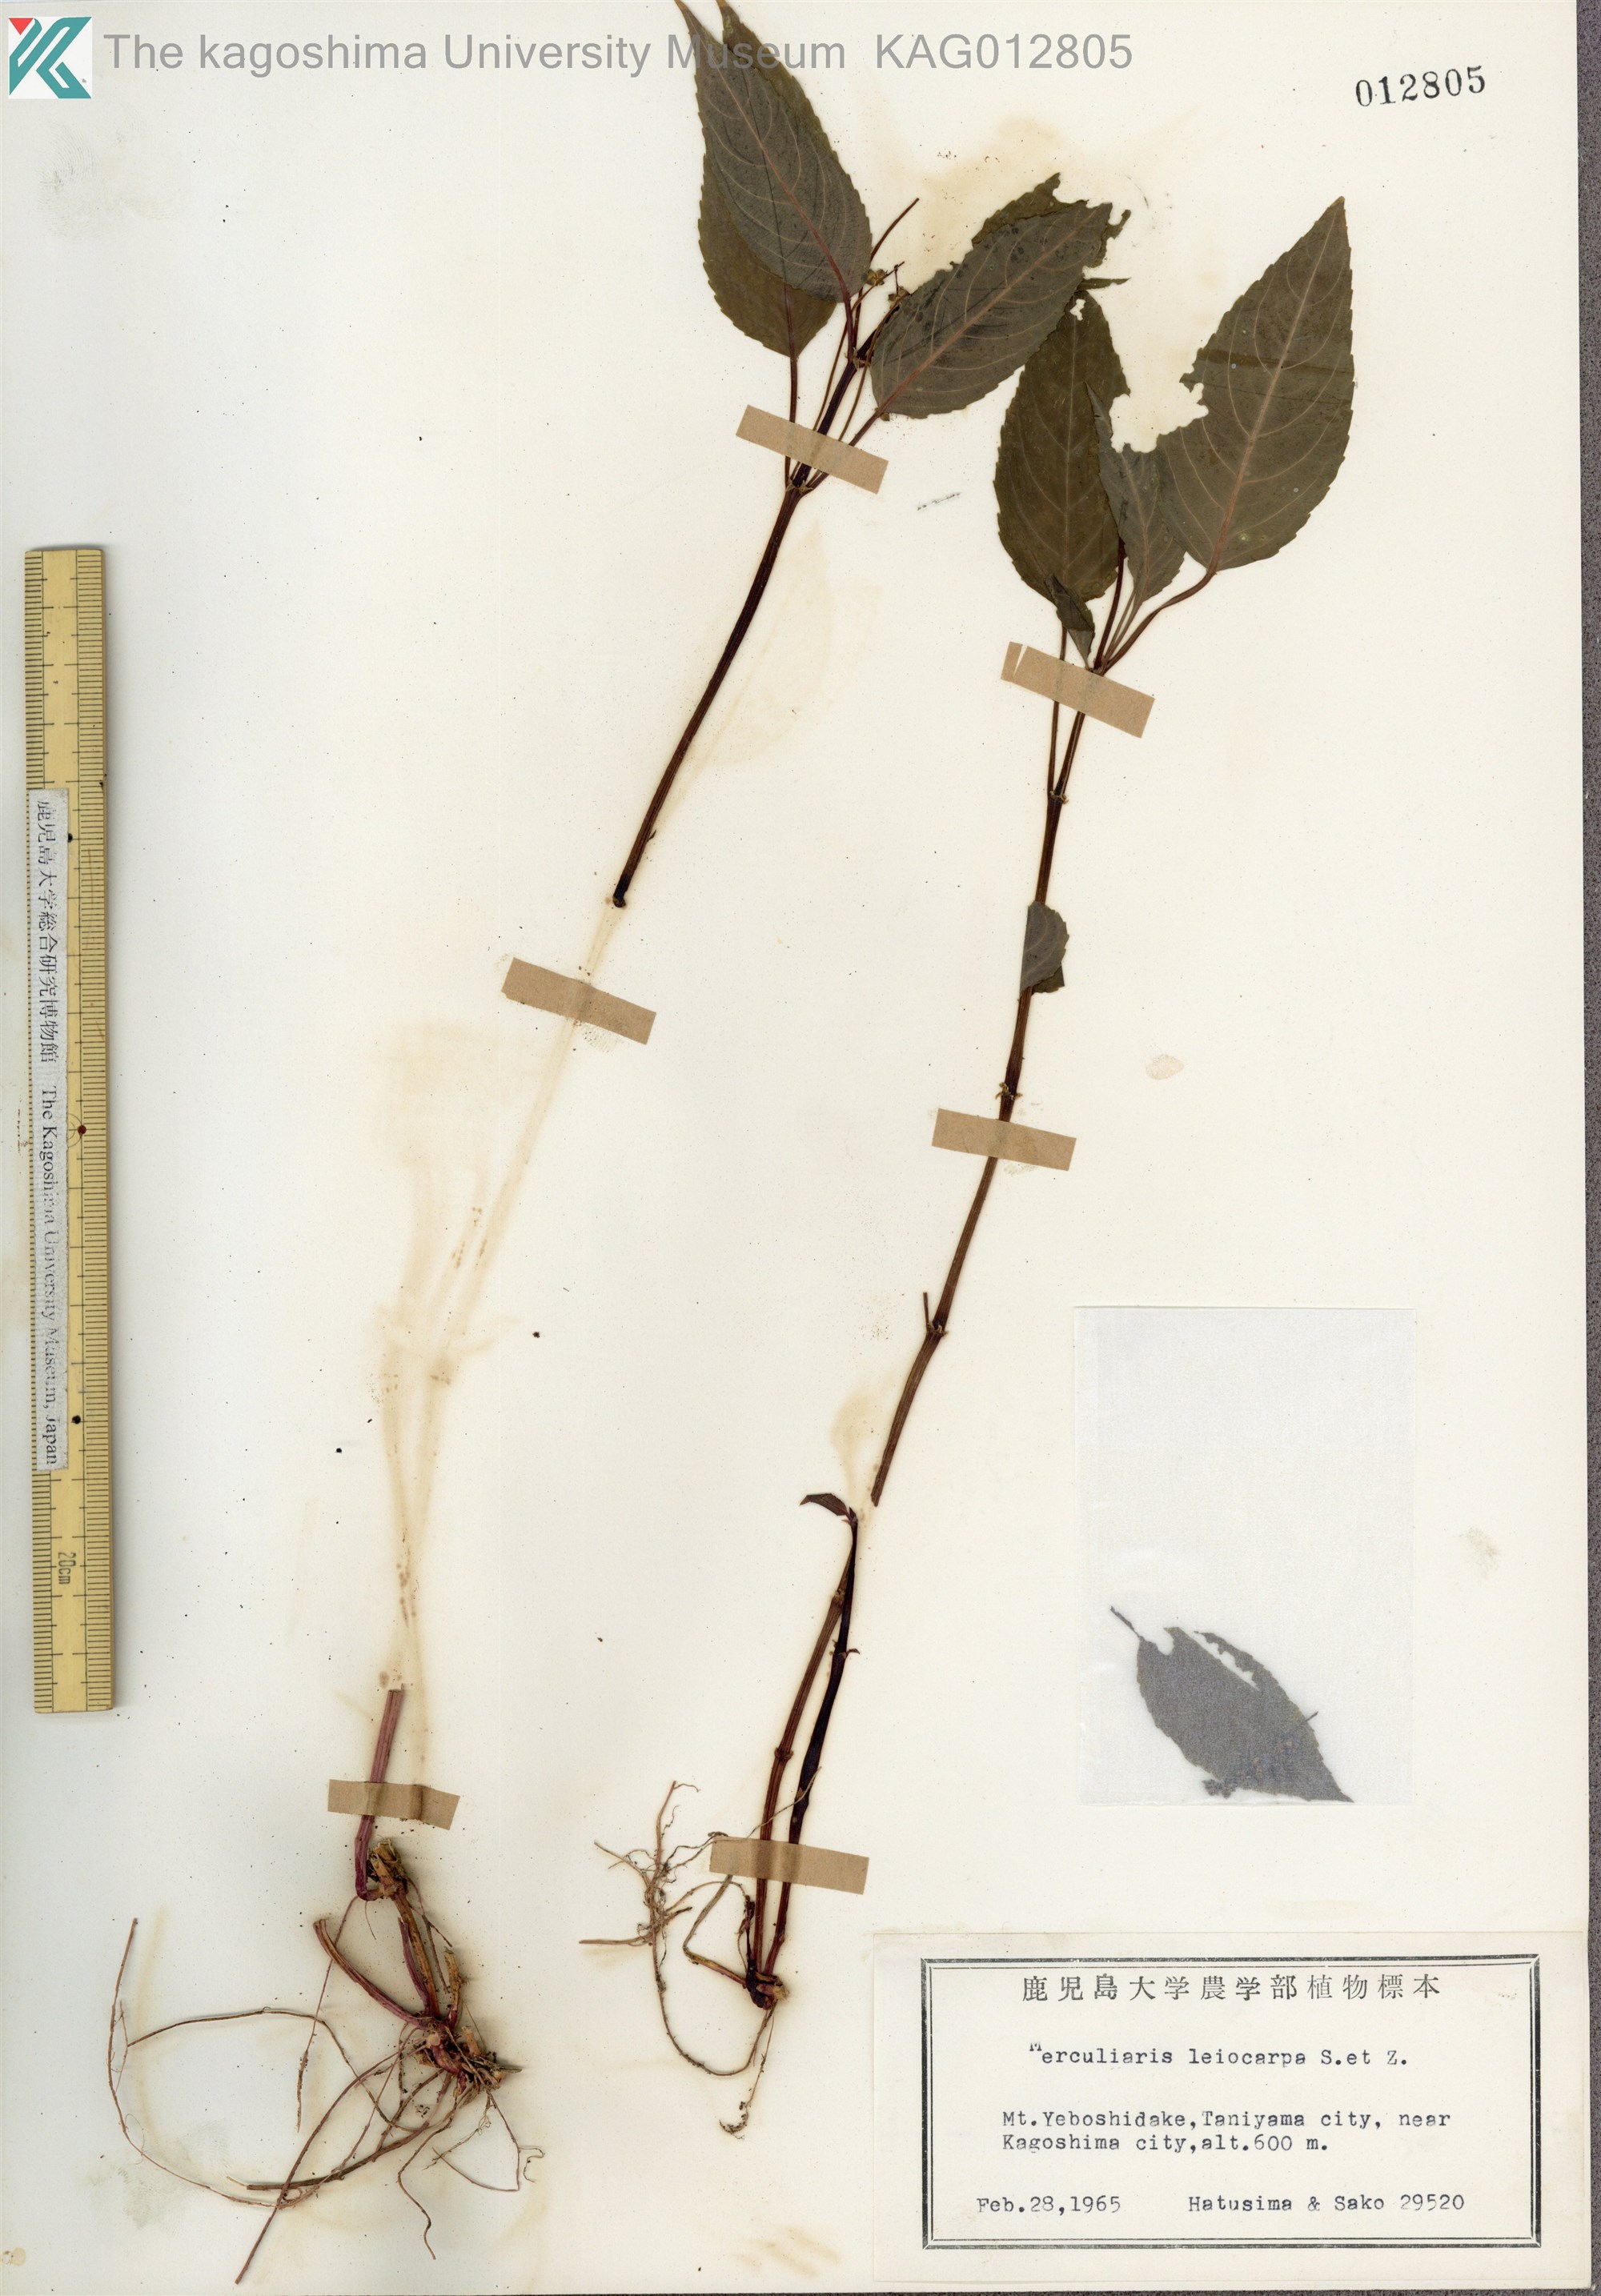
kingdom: Plantae
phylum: Tracheophyta
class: Magnoliopsida
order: Malpighiales
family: Euphorbiaceae
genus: Mercurialis
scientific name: Mercurialis leiocarpa
